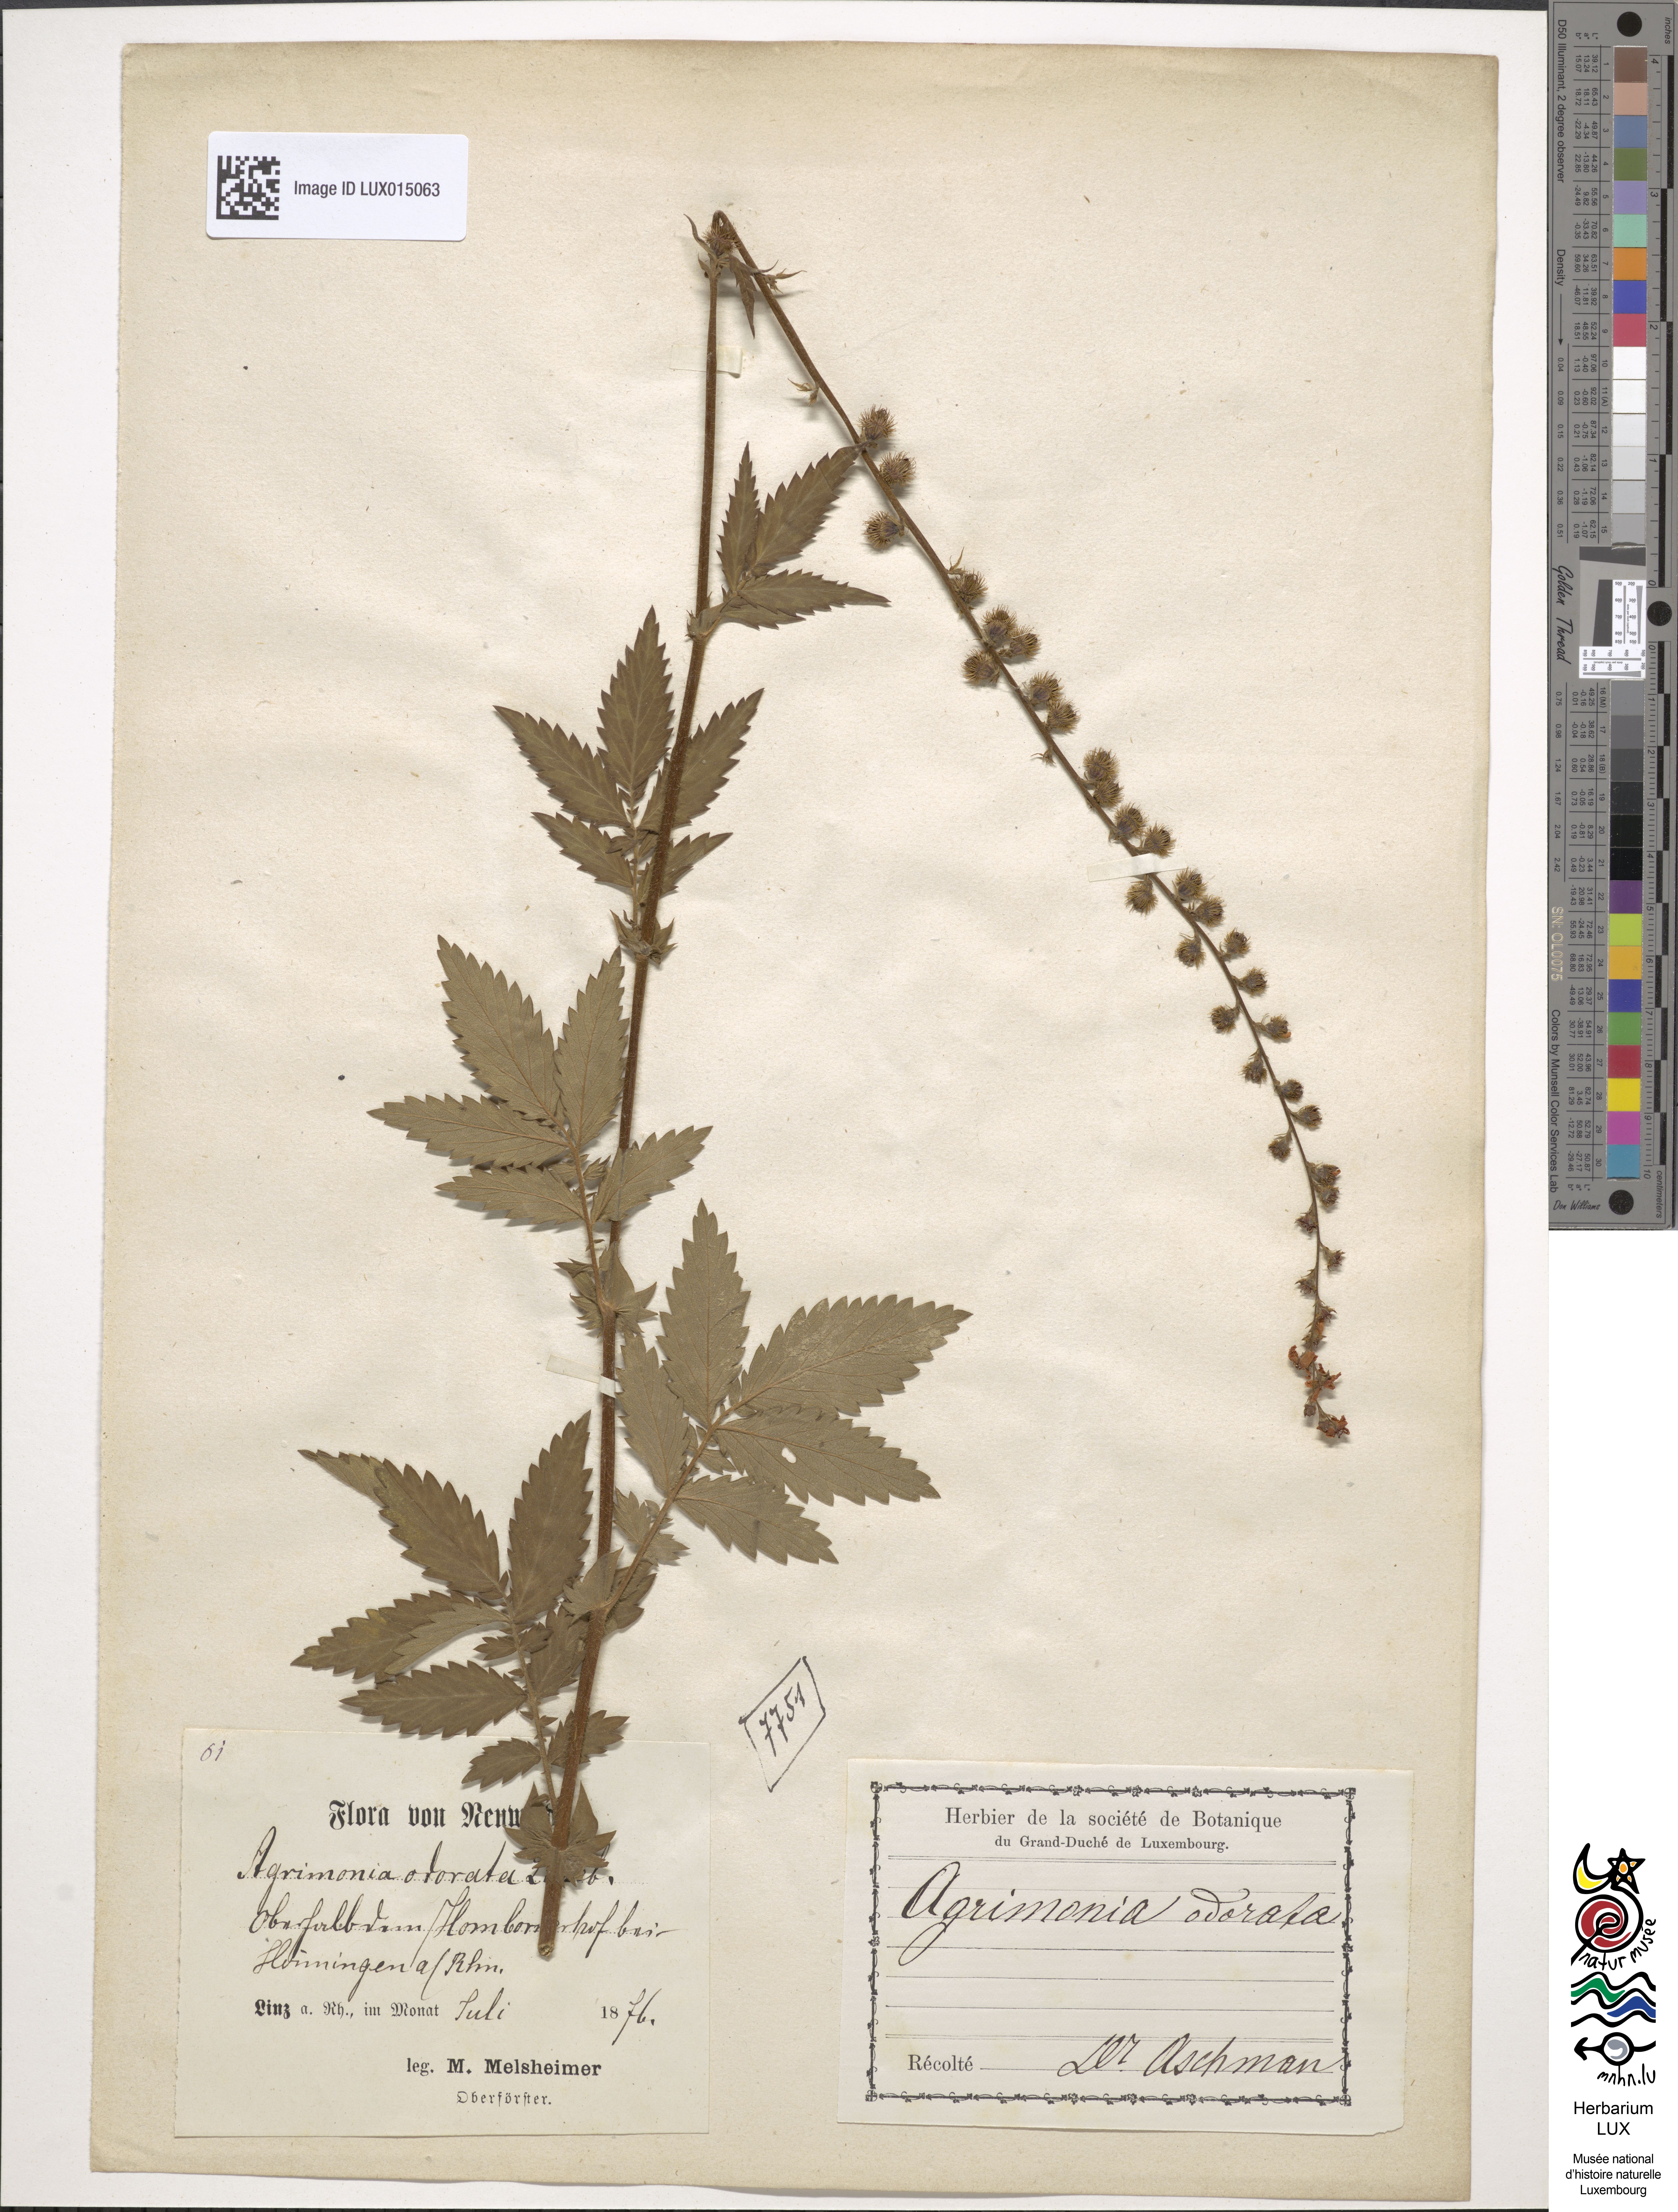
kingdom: Plantae
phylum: Tracheophyta
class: Magnoliopsida
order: Rosales
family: Rosaceae
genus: Agrimonia
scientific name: Agrimonia repens
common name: Creeping agrimony
